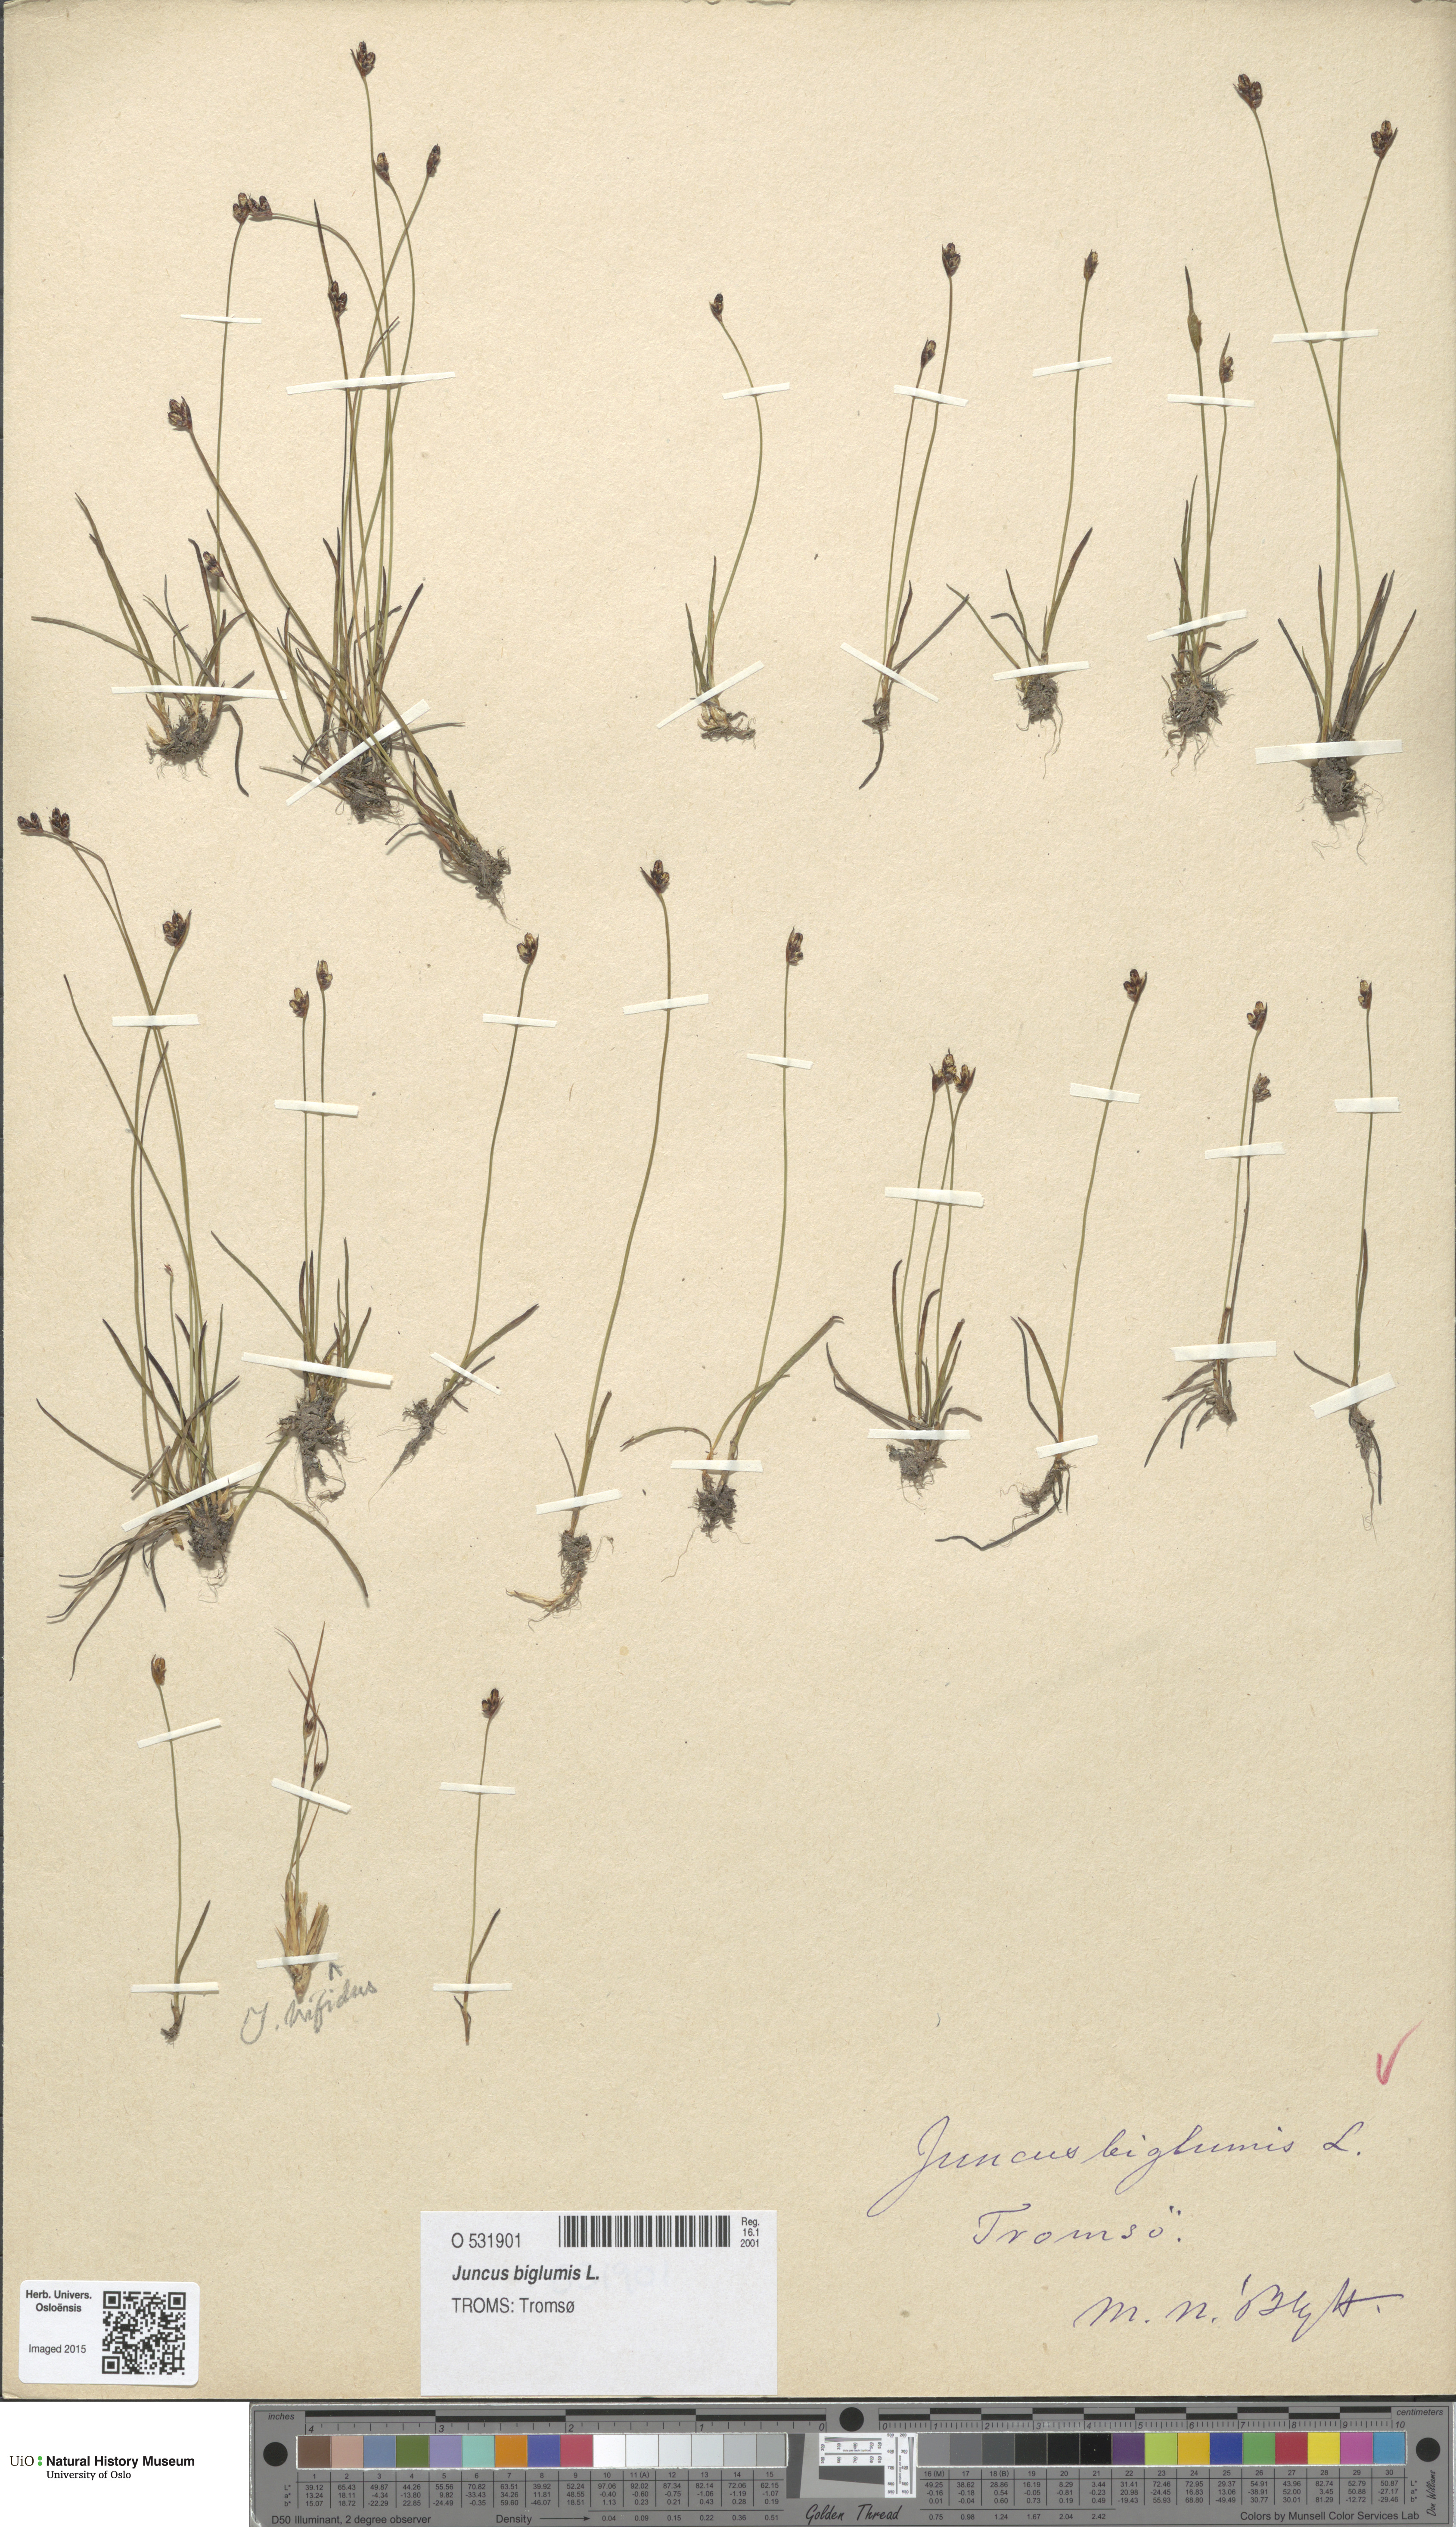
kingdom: Plantae
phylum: Tracheophyta
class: Liliopsida
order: Poales
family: Juncaceae
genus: Juncus
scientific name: Juncus biglumis
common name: Two-flowered rush
